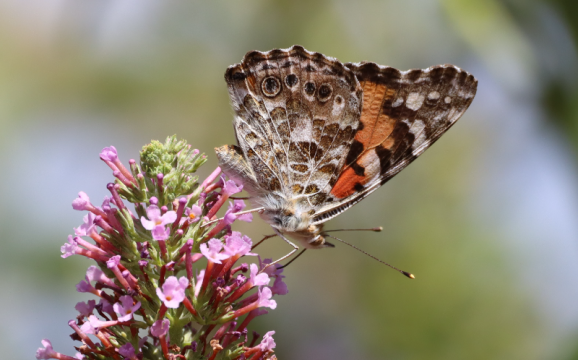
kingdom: Animalia
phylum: Arthropoda
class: Insecta
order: Lepidoptera
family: Nymphalidae
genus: Vanessa
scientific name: Vanessa cardui
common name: Painted Lady
